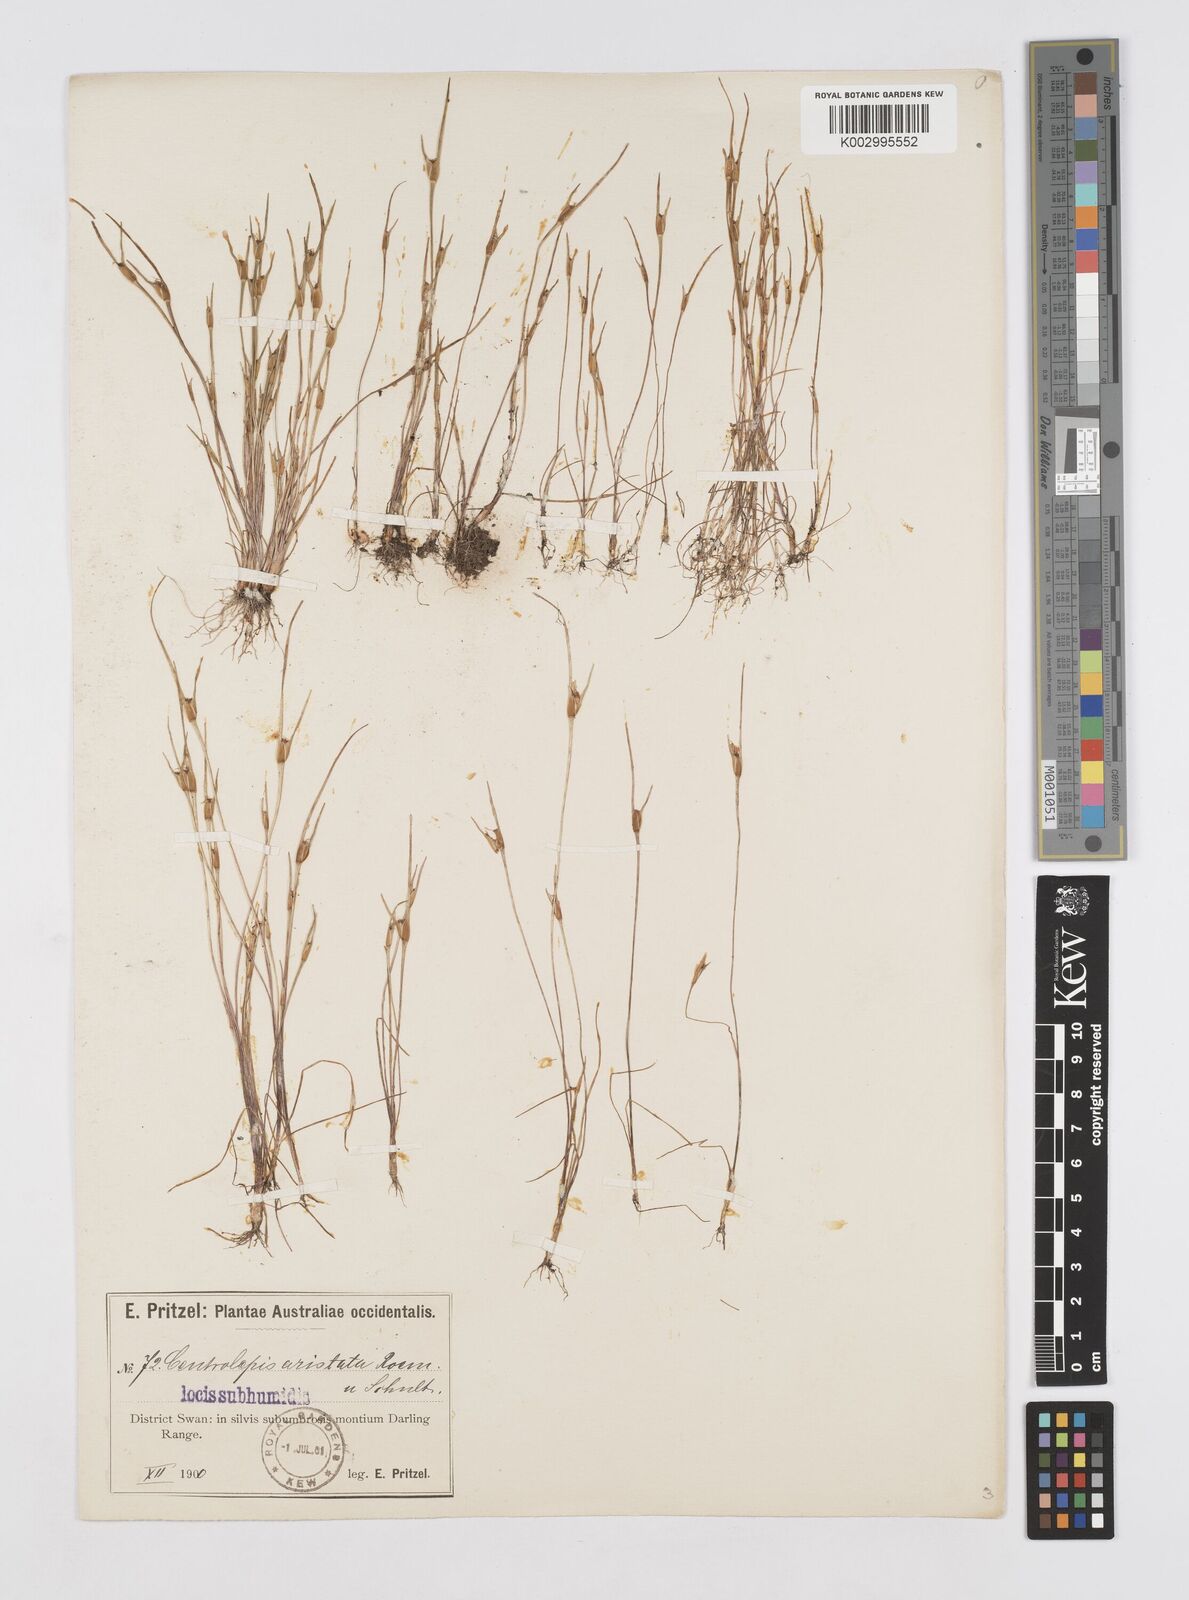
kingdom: Plantae
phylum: Tracheophyta
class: Liliopsida
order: Poales
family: Restionaceae
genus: Centrolepis
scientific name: Centrolepis aristata
